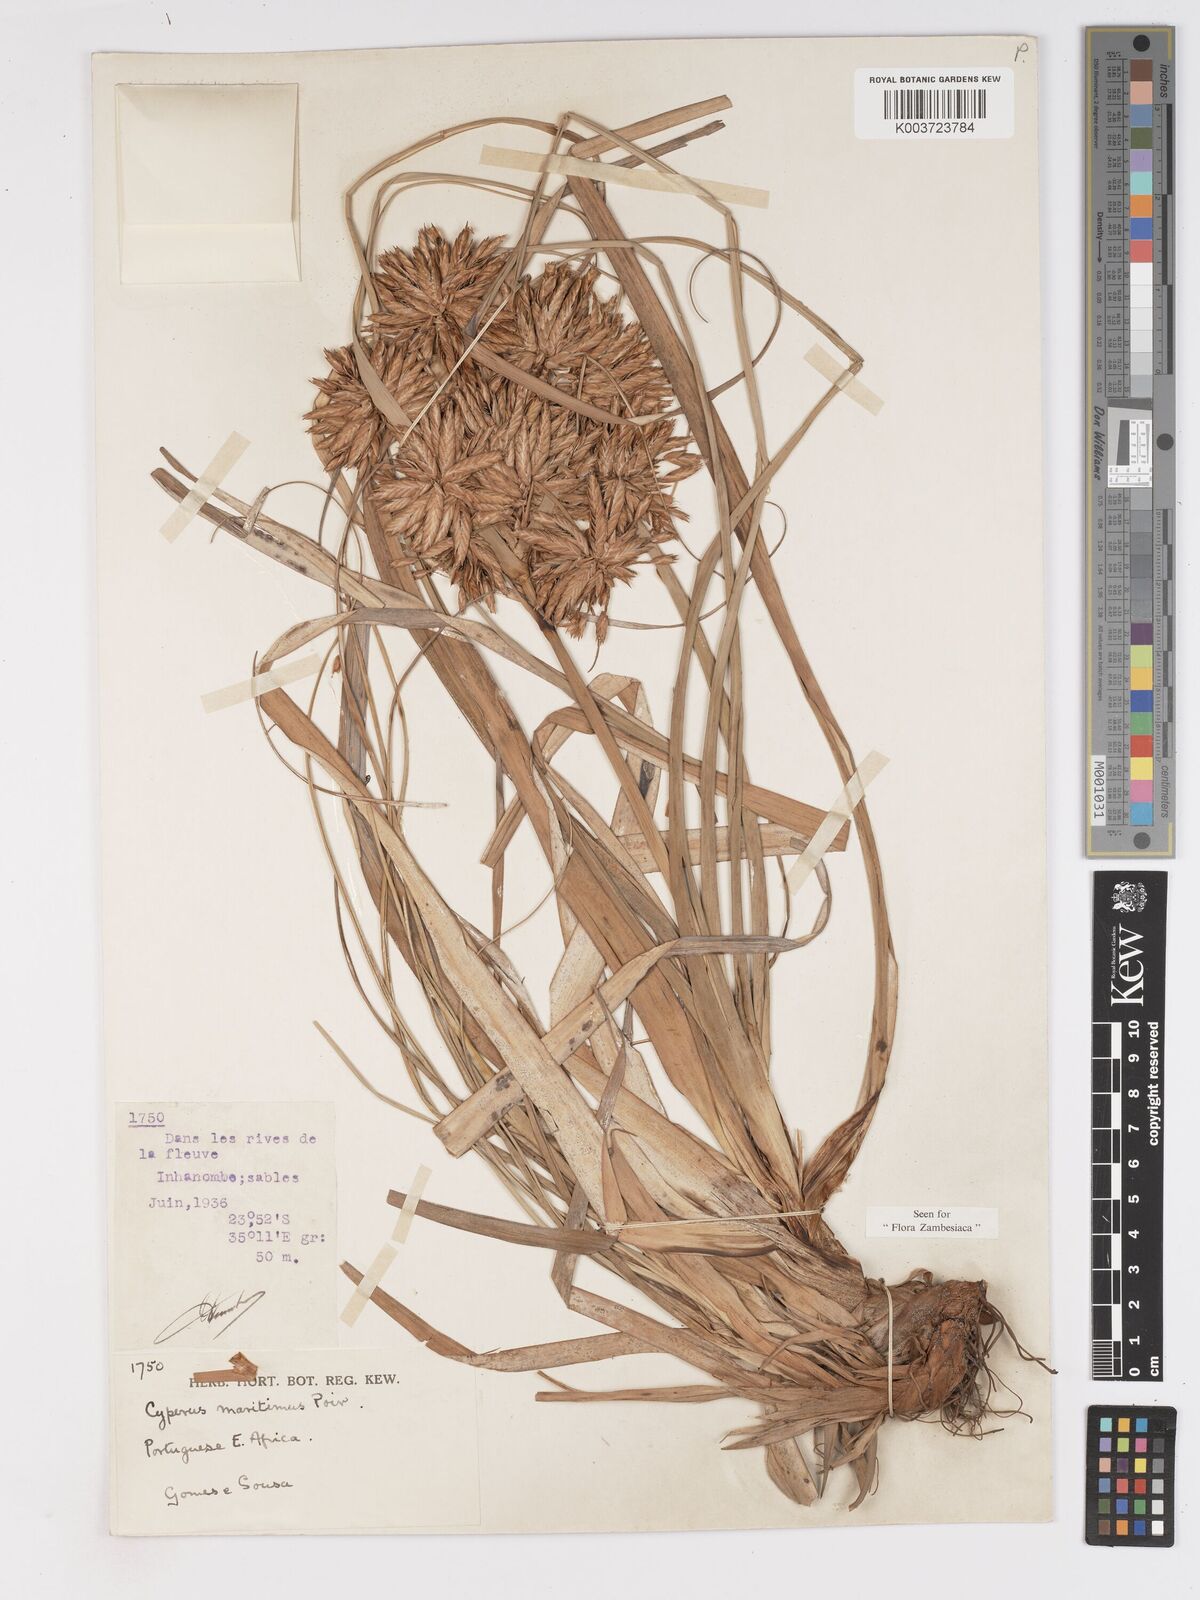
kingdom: Plantae
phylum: Tracheophyta
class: Liliopsida
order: Poales
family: Cyperaceae
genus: Cyperus
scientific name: Cyperus crassipes
